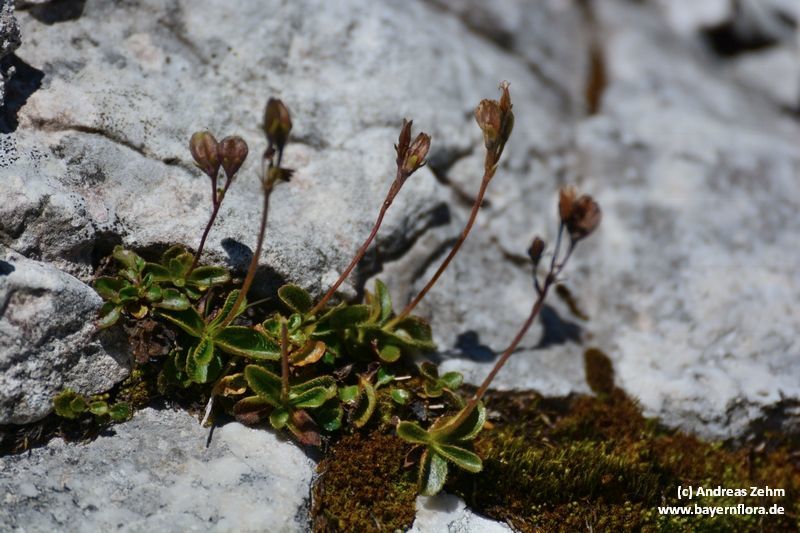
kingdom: Plantae
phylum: Tracheophyta
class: Magnoliopsida
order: Lamiales
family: Plantaginaceae
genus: Veronica
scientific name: Veronica aphylla
